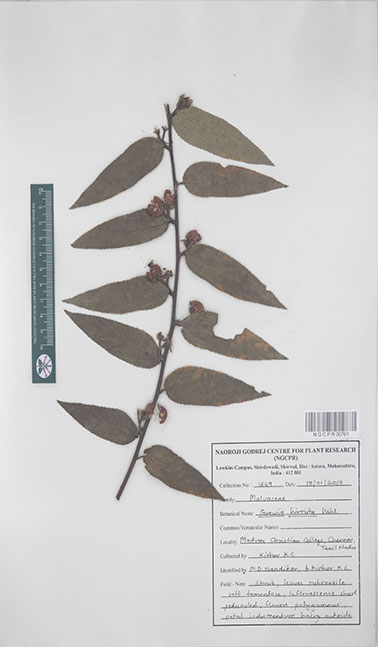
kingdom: Plantae
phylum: Tracheophyta
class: Magnoliopsida
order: Malvales
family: Malvaceae
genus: Grewia
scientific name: Grewia hirsuta
